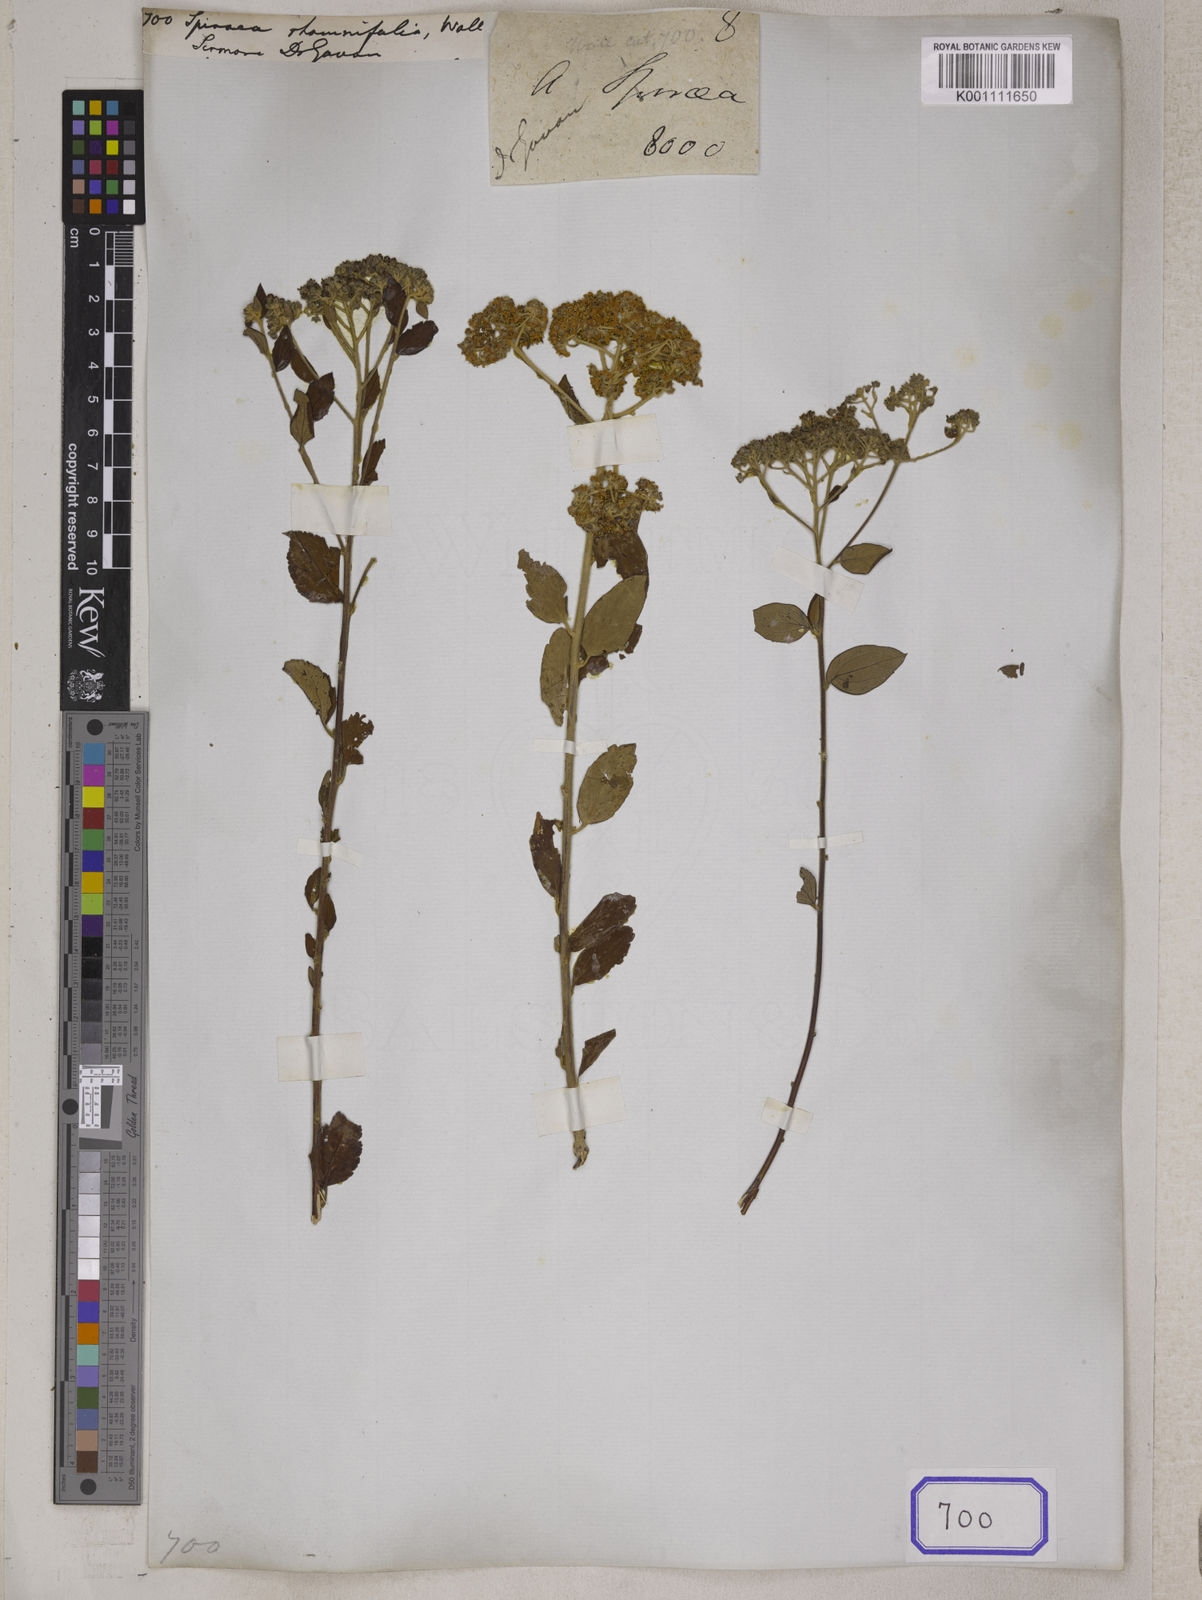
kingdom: Plantae
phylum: Tracheophyta
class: Magnoliopsida
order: Rosales
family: Rosaceae
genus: Spiraea
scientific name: Spiraea
